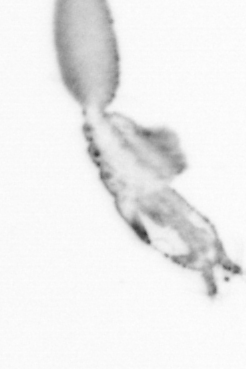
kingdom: Animalia
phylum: Arthropoda
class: Copepoda
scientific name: Copepoda
